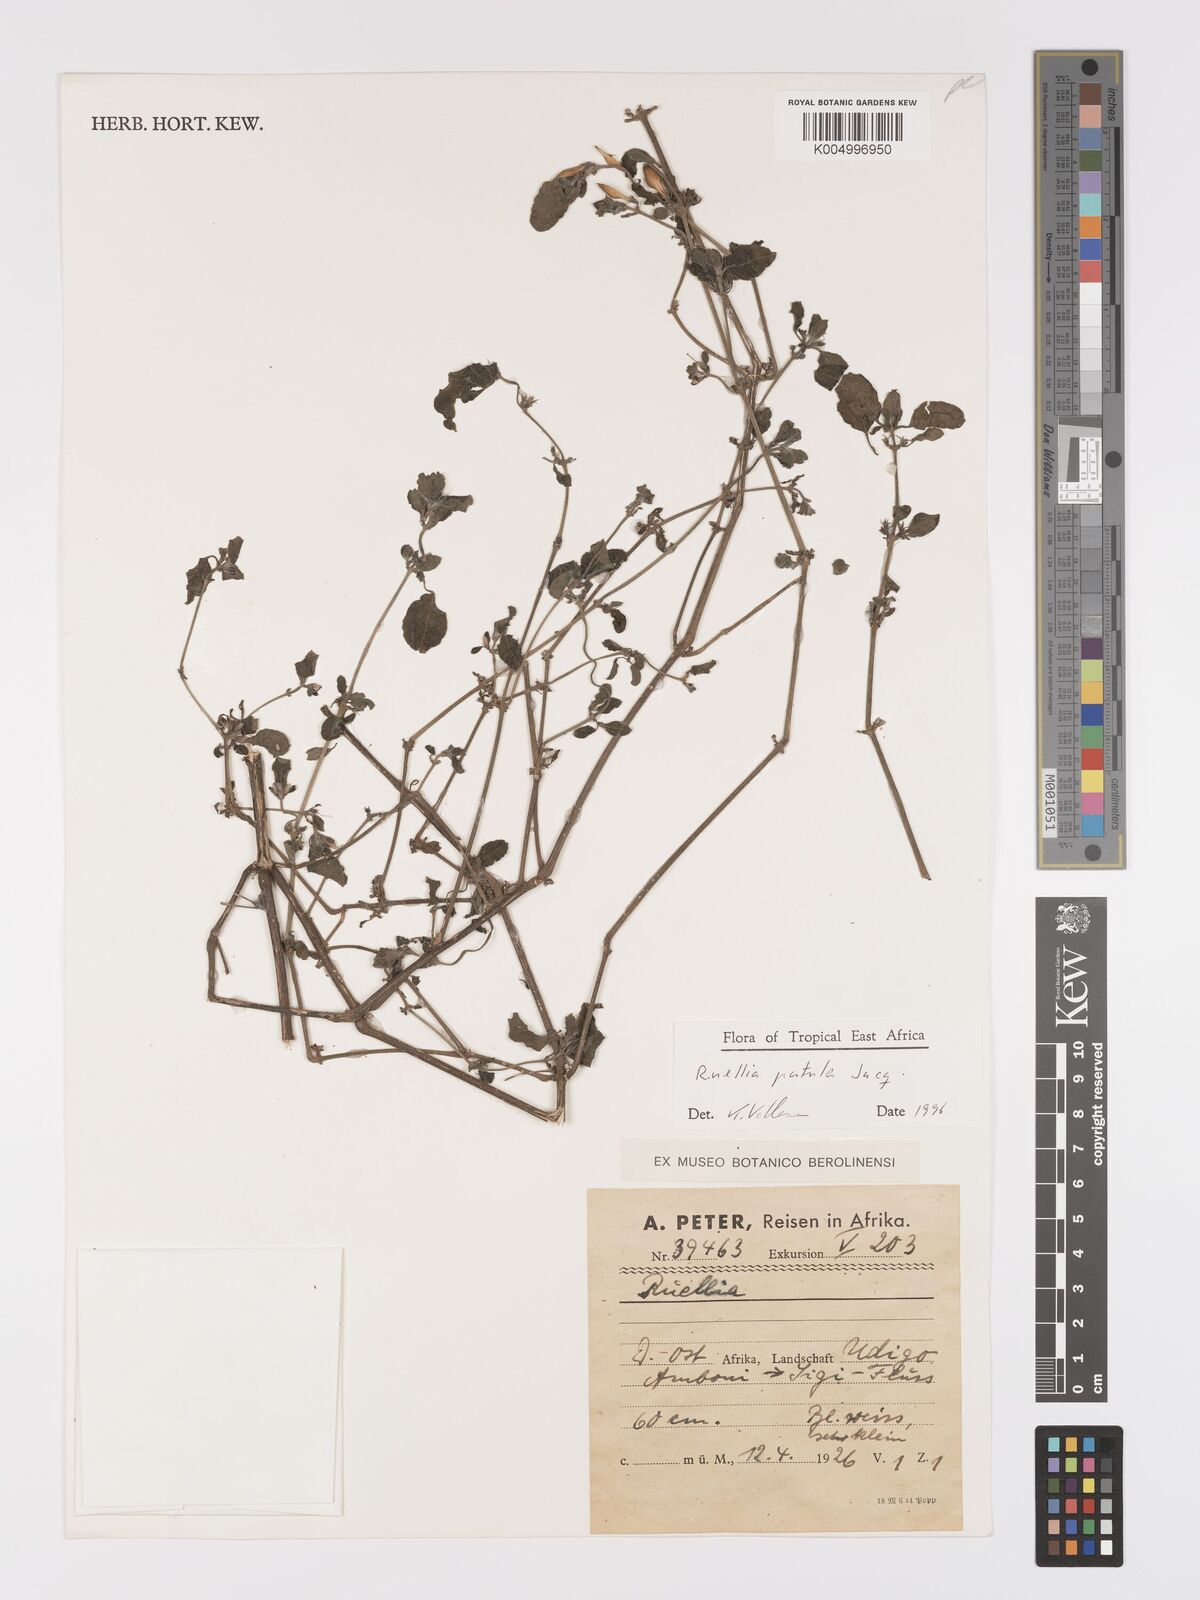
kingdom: Plantae
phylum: Tracheophyta
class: Magnoliopsida
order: Lamiales
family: Acanthaceae
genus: Ruellia
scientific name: Ruellia patula
